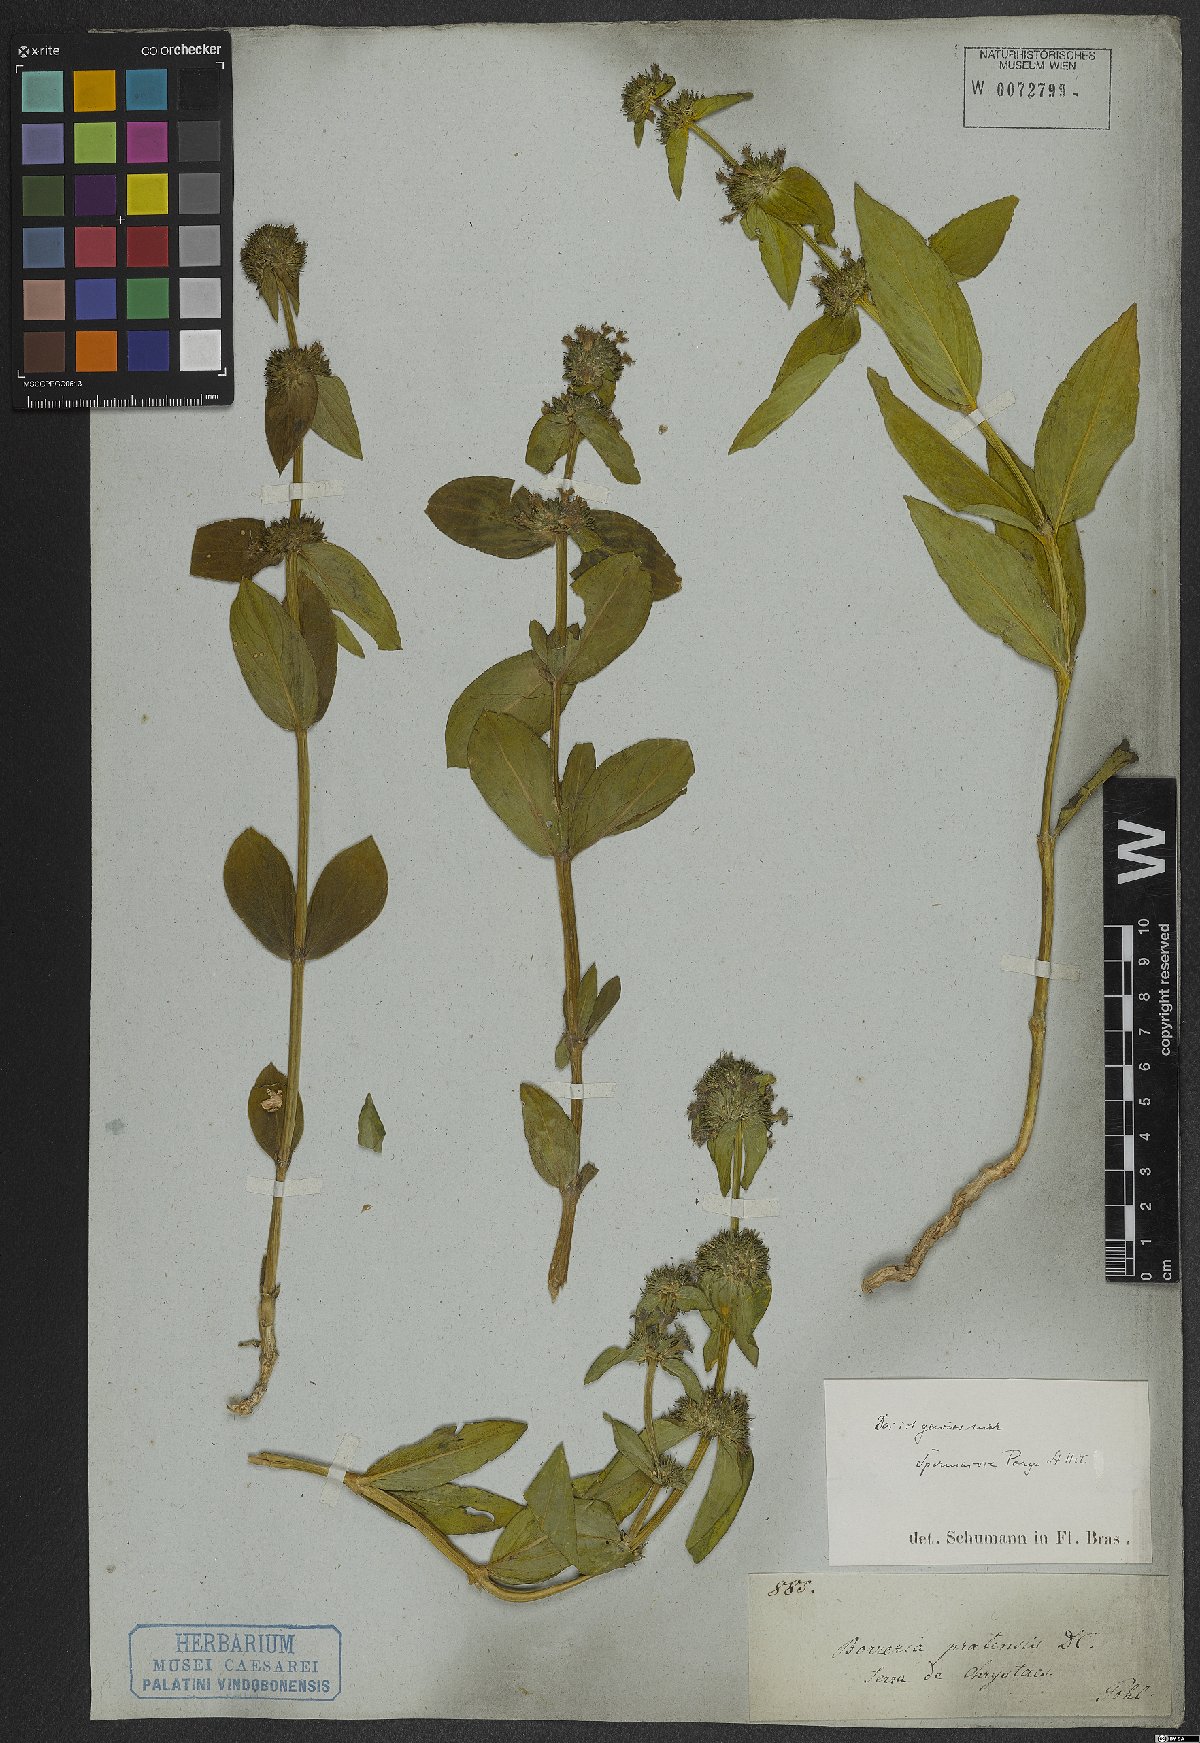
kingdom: Plantae
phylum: Tracheophyta
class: Magnoliopsida
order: Gentianales
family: Rubiaceae
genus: Spermacoce
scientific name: Spermacoce
